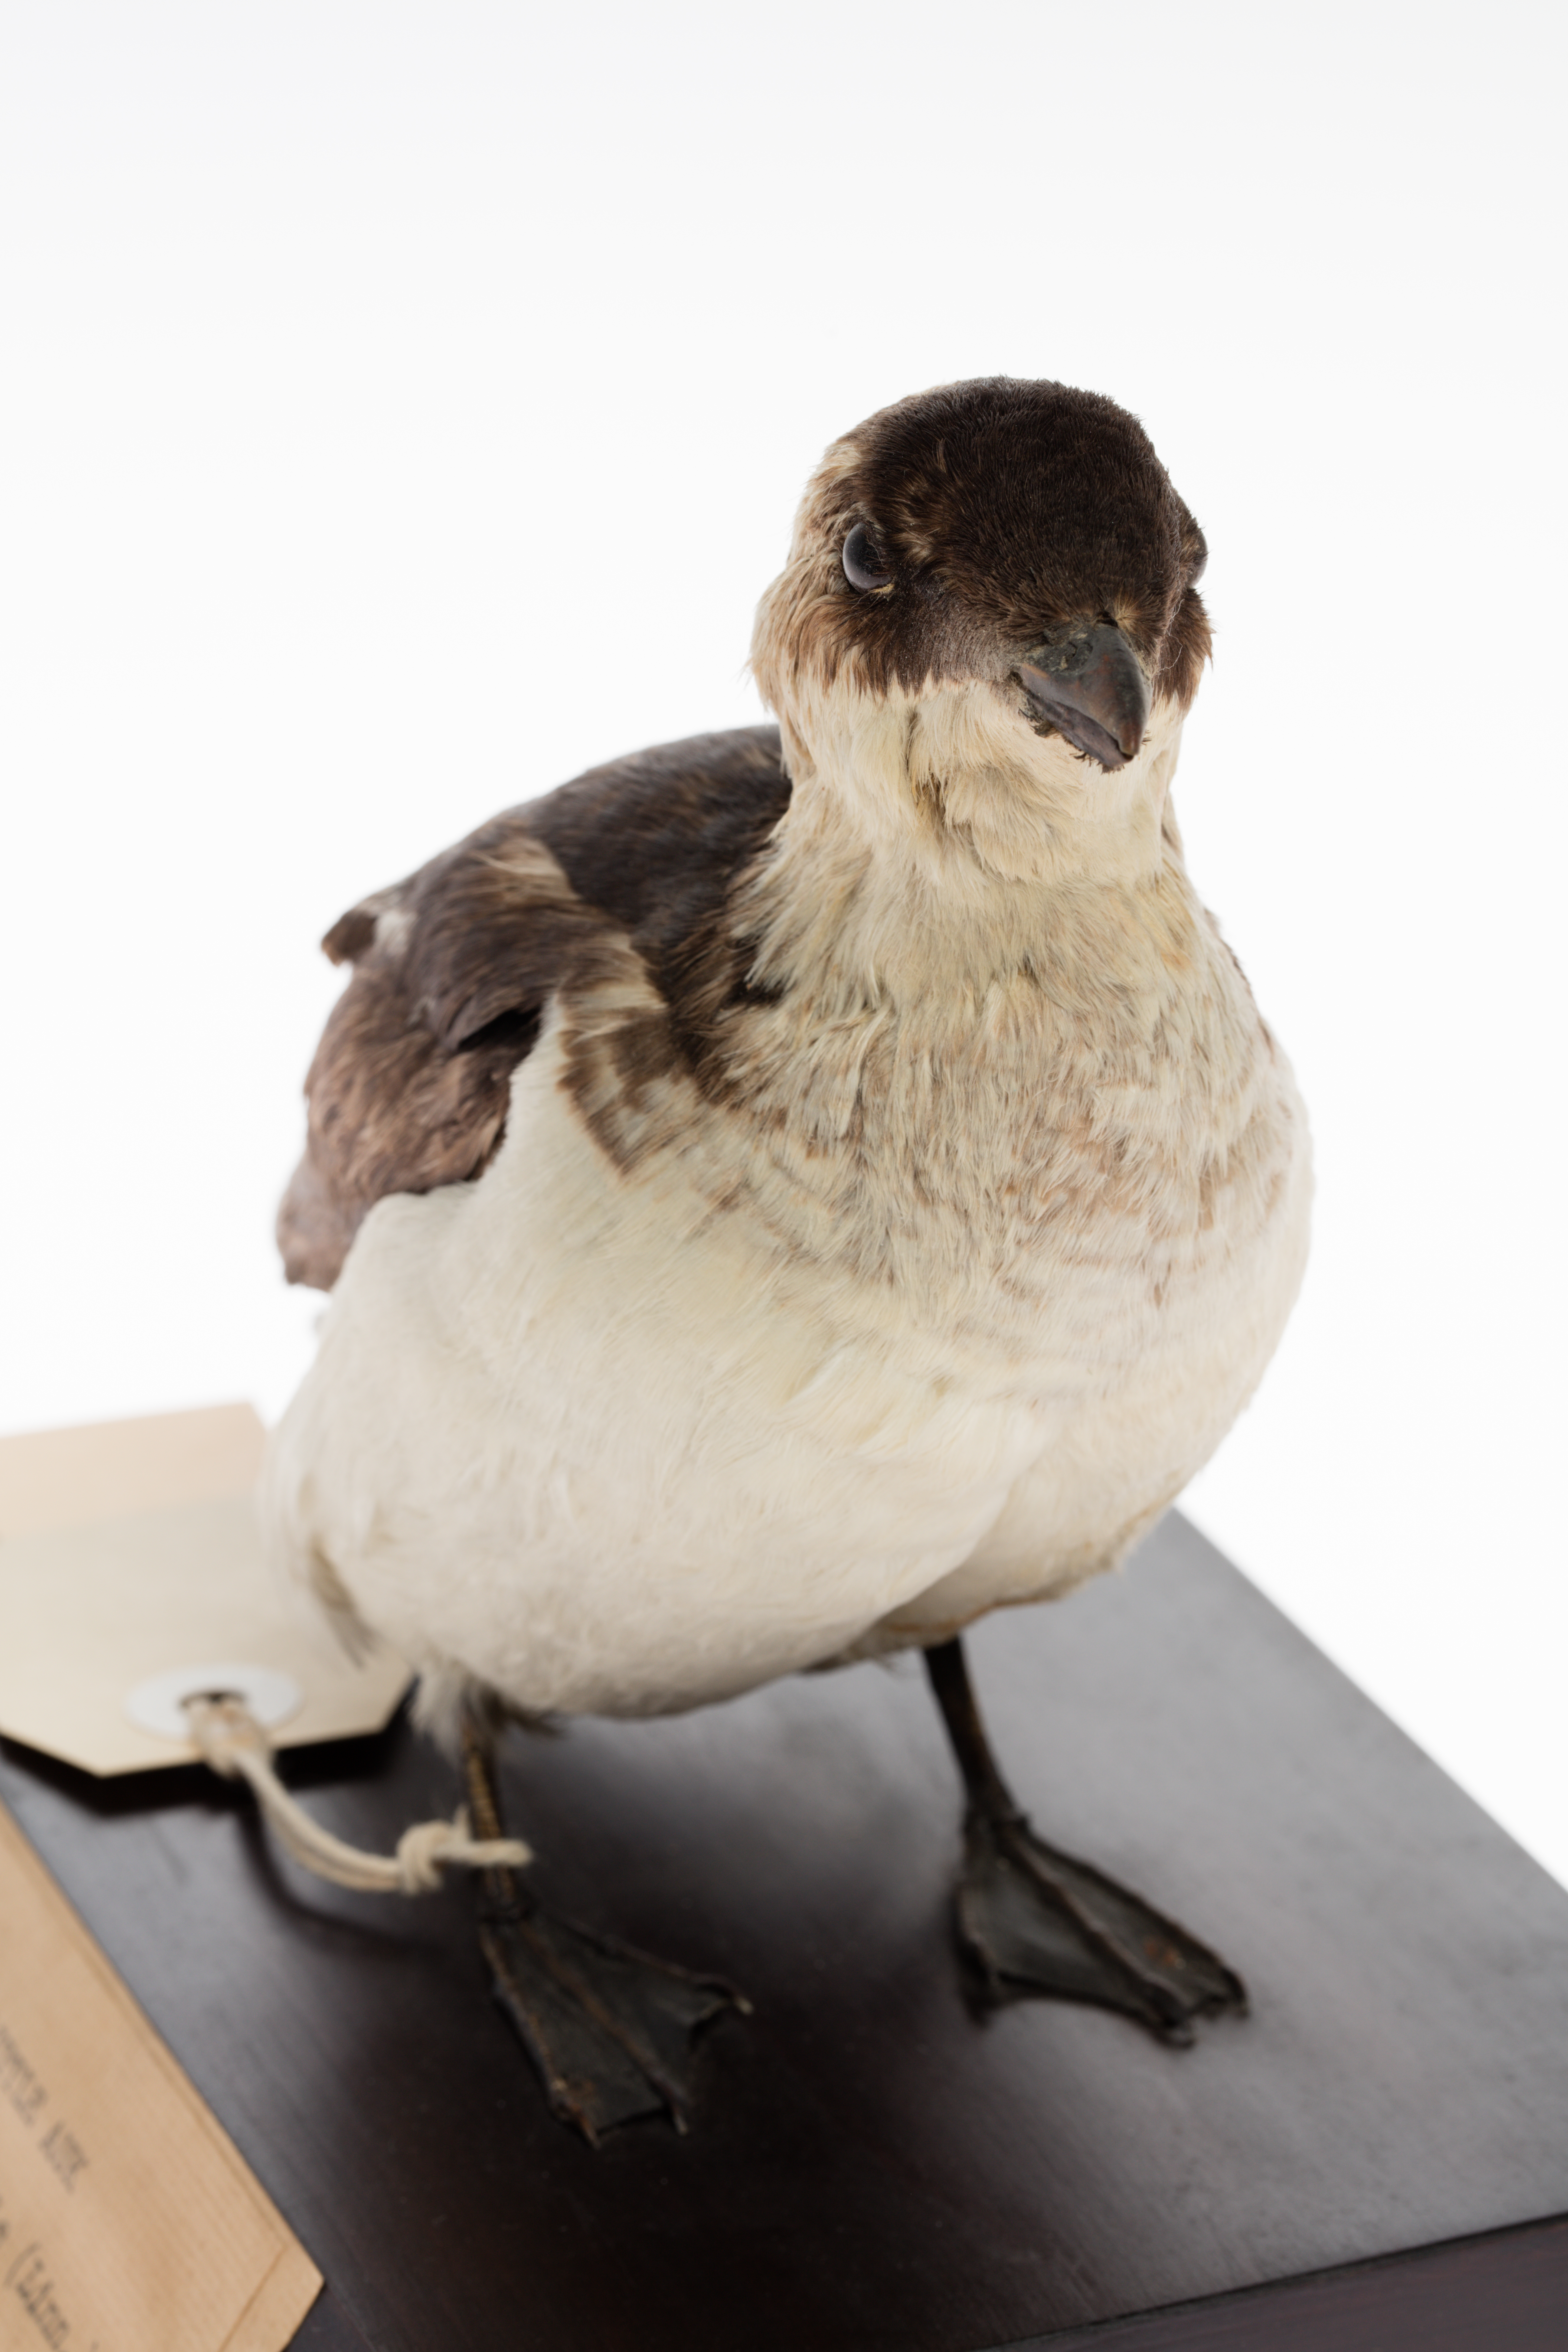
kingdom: Animalia
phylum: Chordata
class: Aves
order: Charadriiformes
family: Alcidae
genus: Alle
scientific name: Alle alle
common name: Little auk
